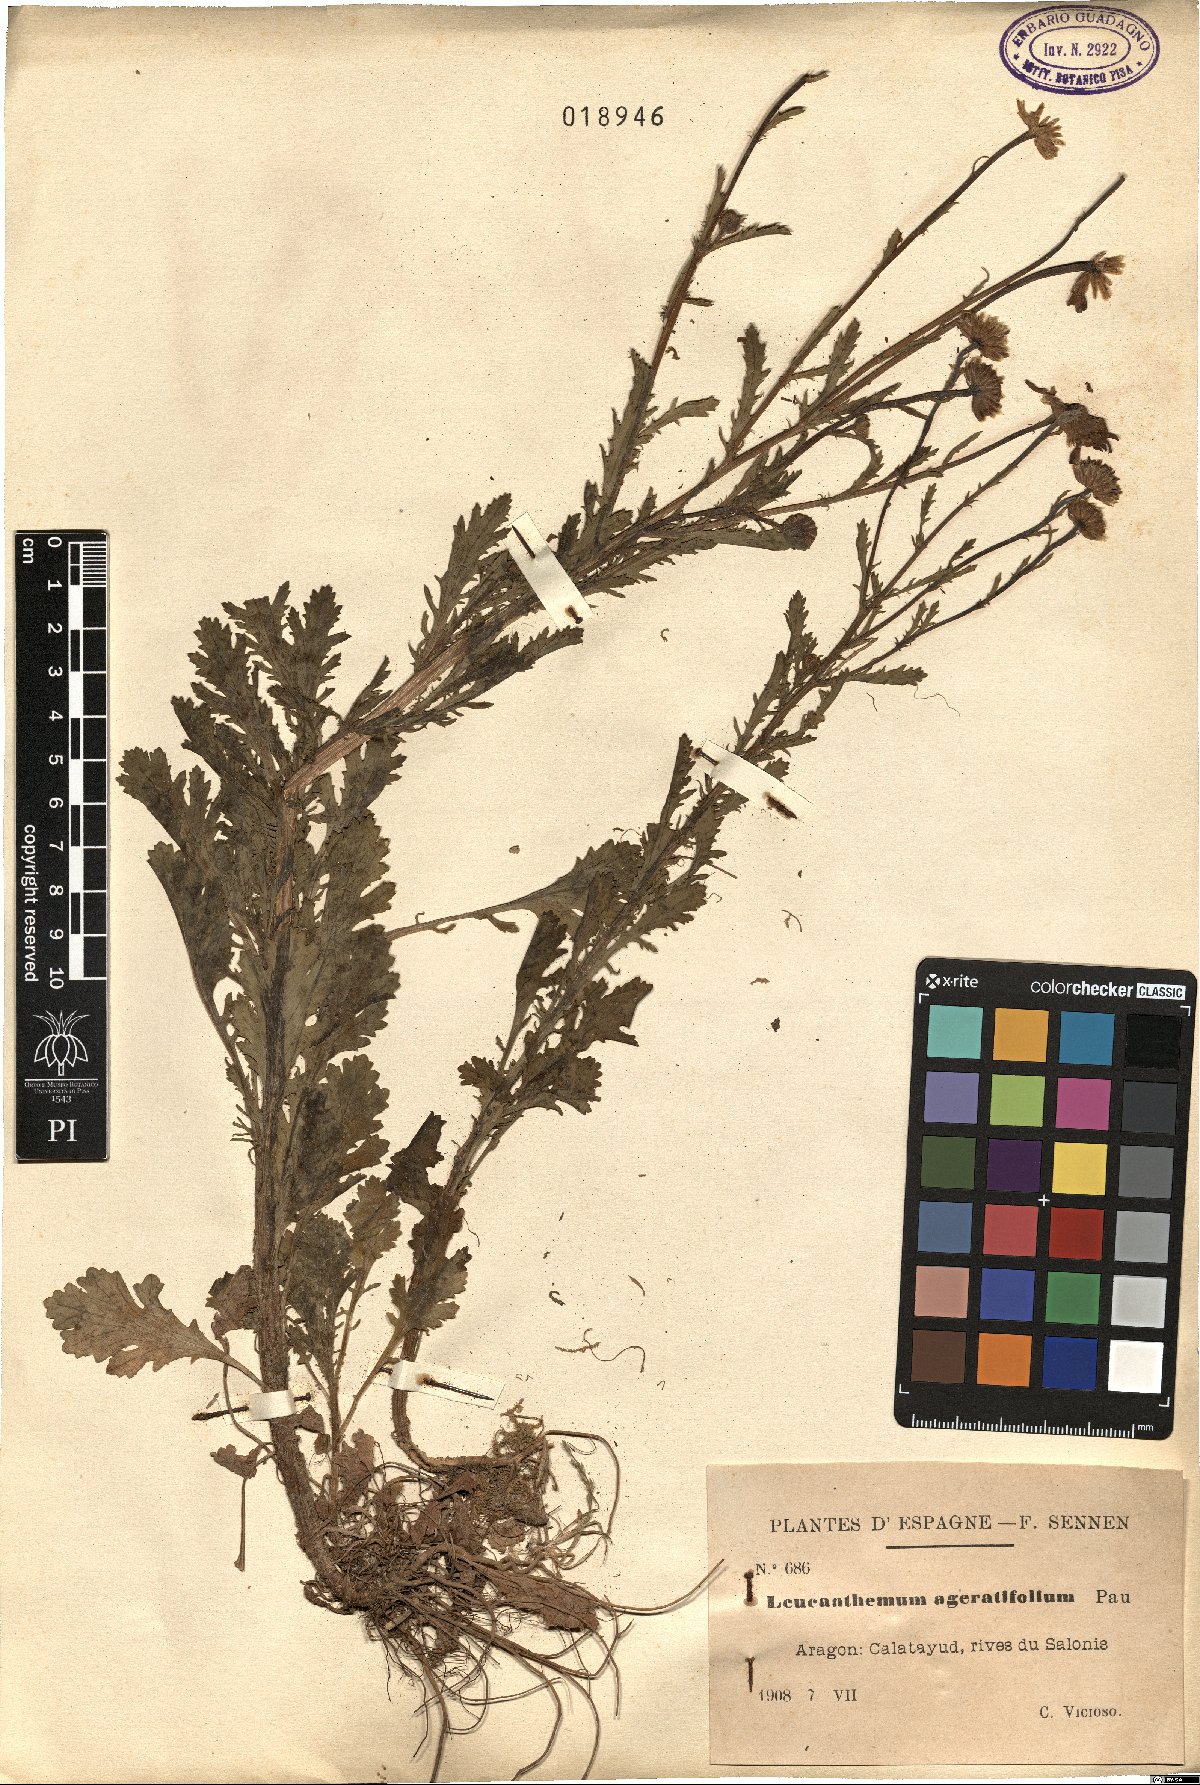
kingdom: Plantae
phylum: Tracheophyta
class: Magnoliopsida
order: Asterales
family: Asteraceae
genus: Leucanthemum
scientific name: Leucanthemum ageratifolium
